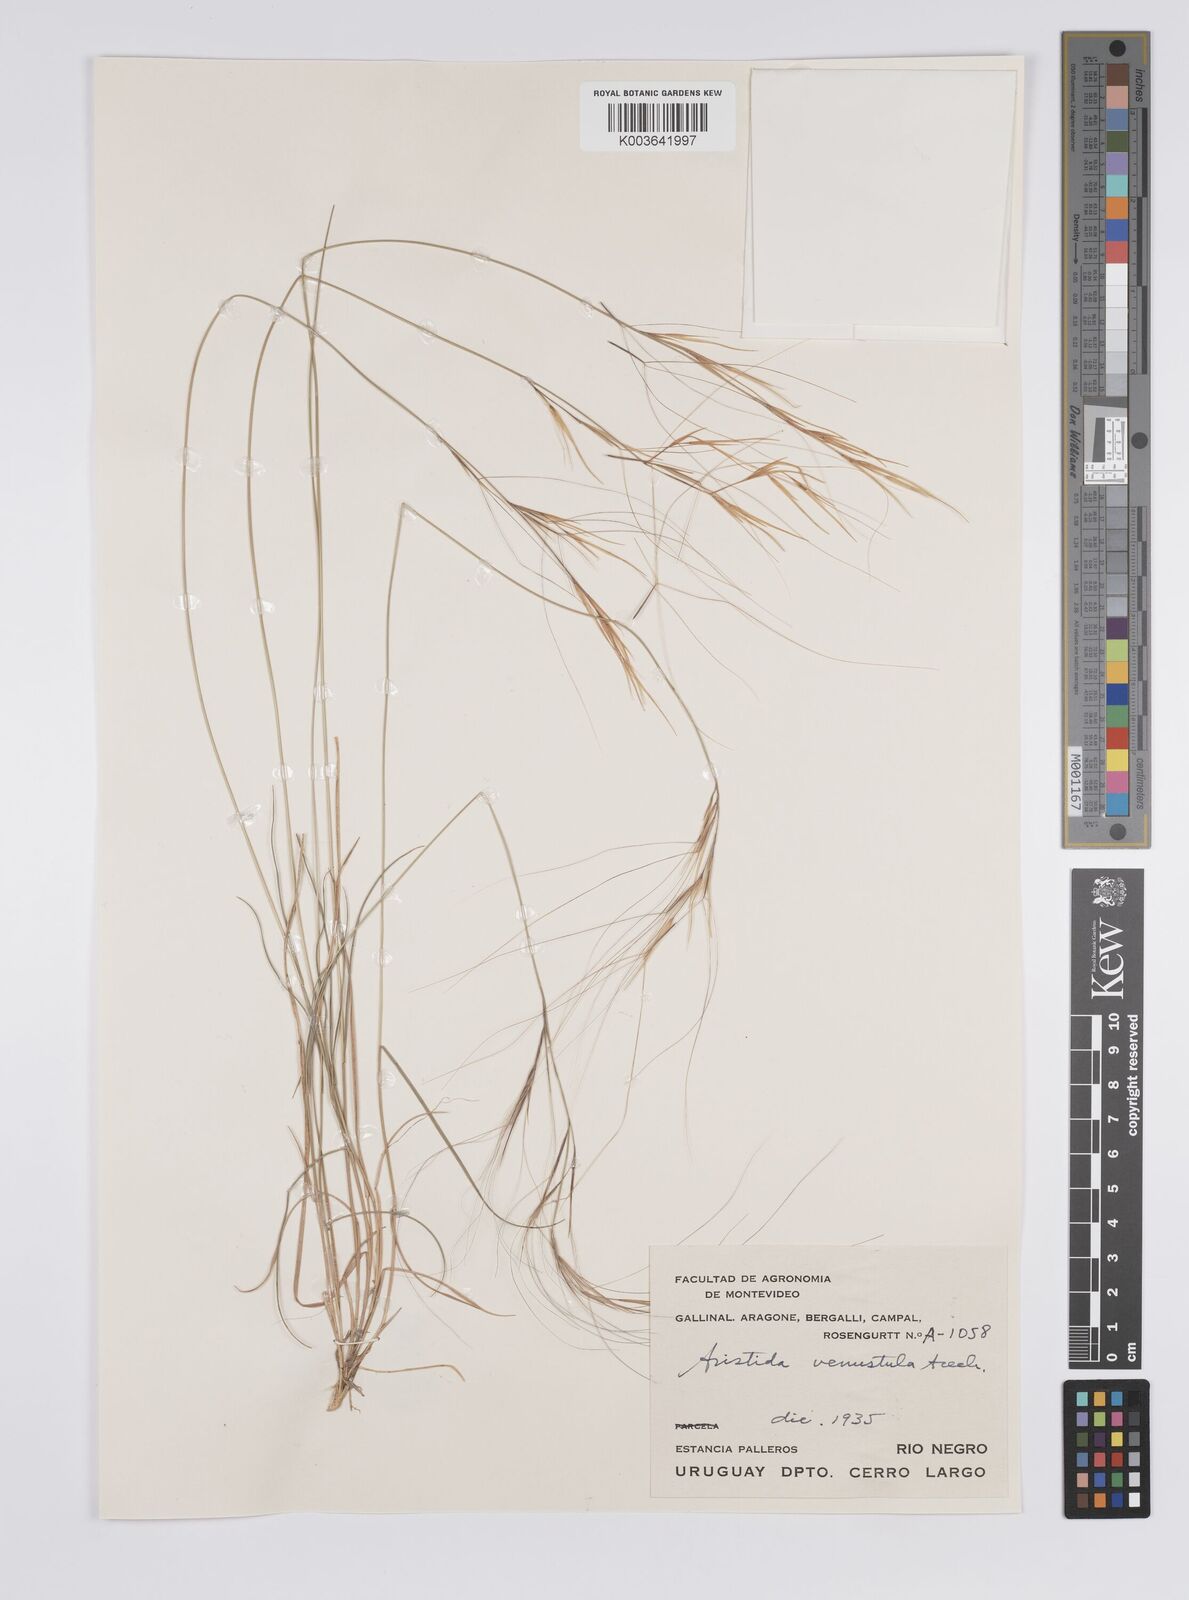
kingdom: Plantae
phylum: Tracheophyta
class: Liliopsida
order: Poales
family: Poaceae
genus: Aristida
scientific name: Aristida venustula
